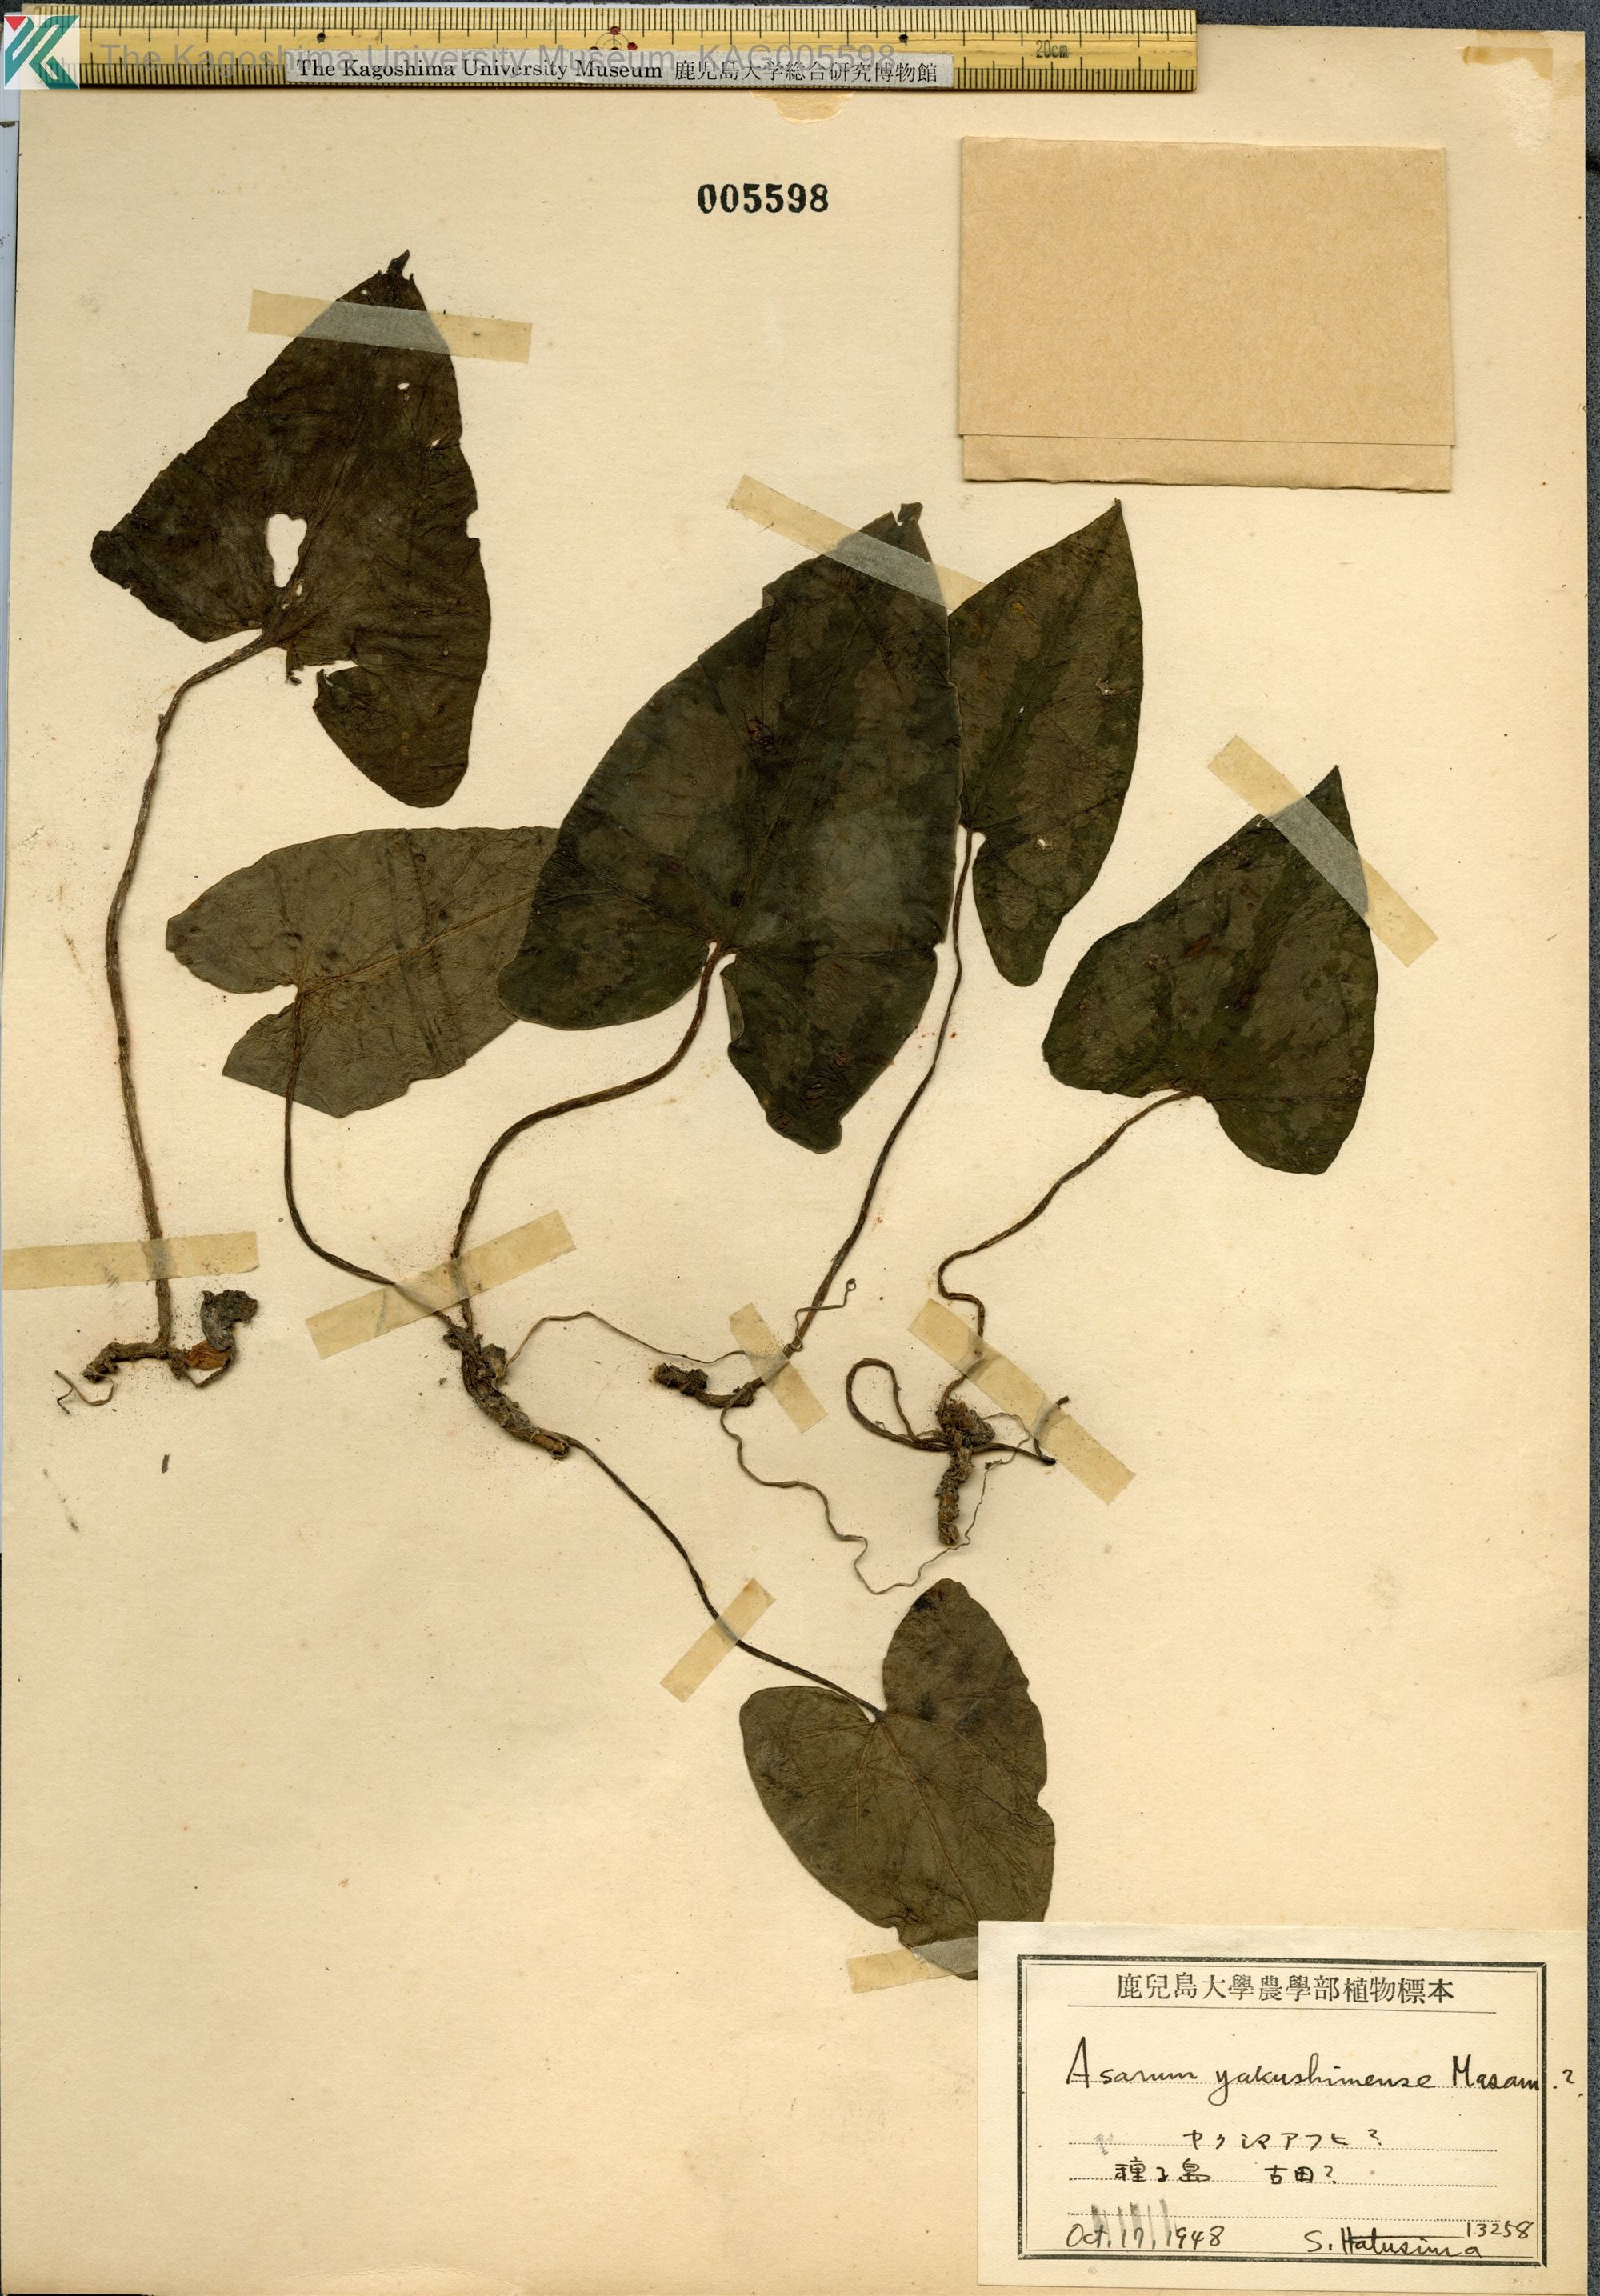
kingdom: Plantae
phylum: Tracheophyta
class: Magnoliopsida
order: Piperales
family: Aristolochiaceae
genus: Asarum
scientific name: Asarum kumageanum
